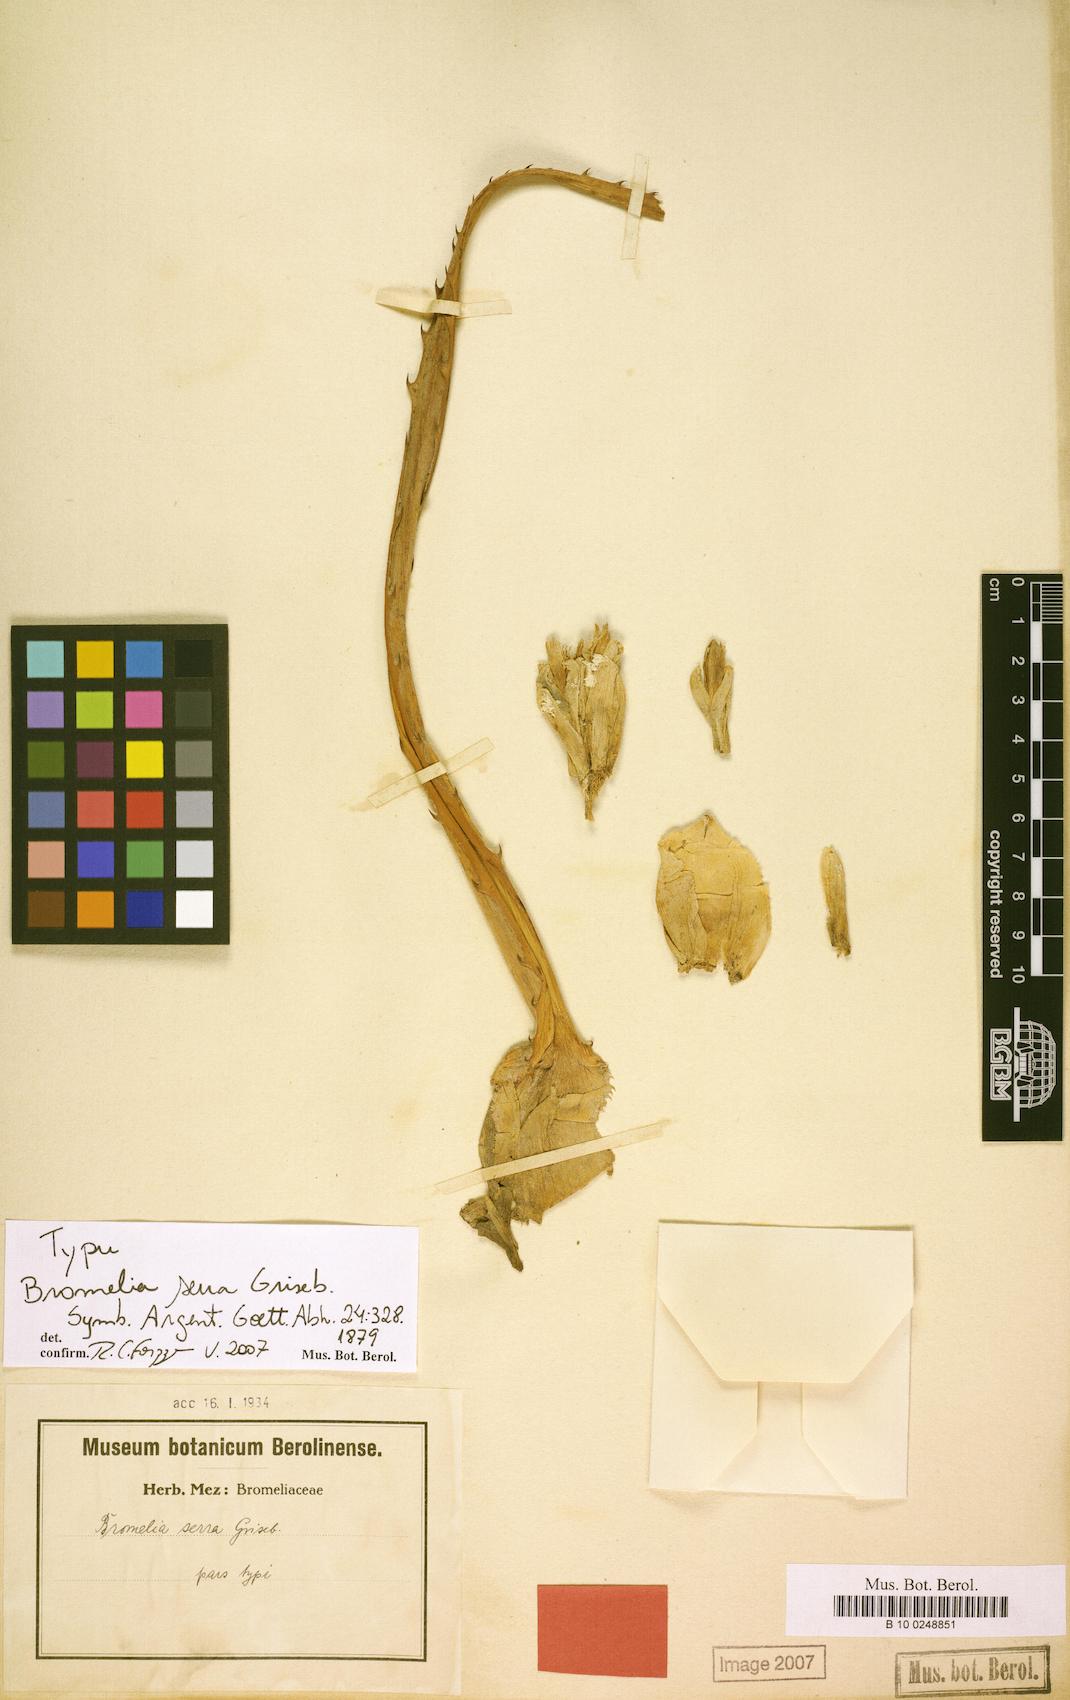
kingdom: Plantae
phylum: Tracheophyta
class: Liliopsida
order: Poales
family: Bromeliaceae
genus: Bromelia
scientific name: Bromelia serra
